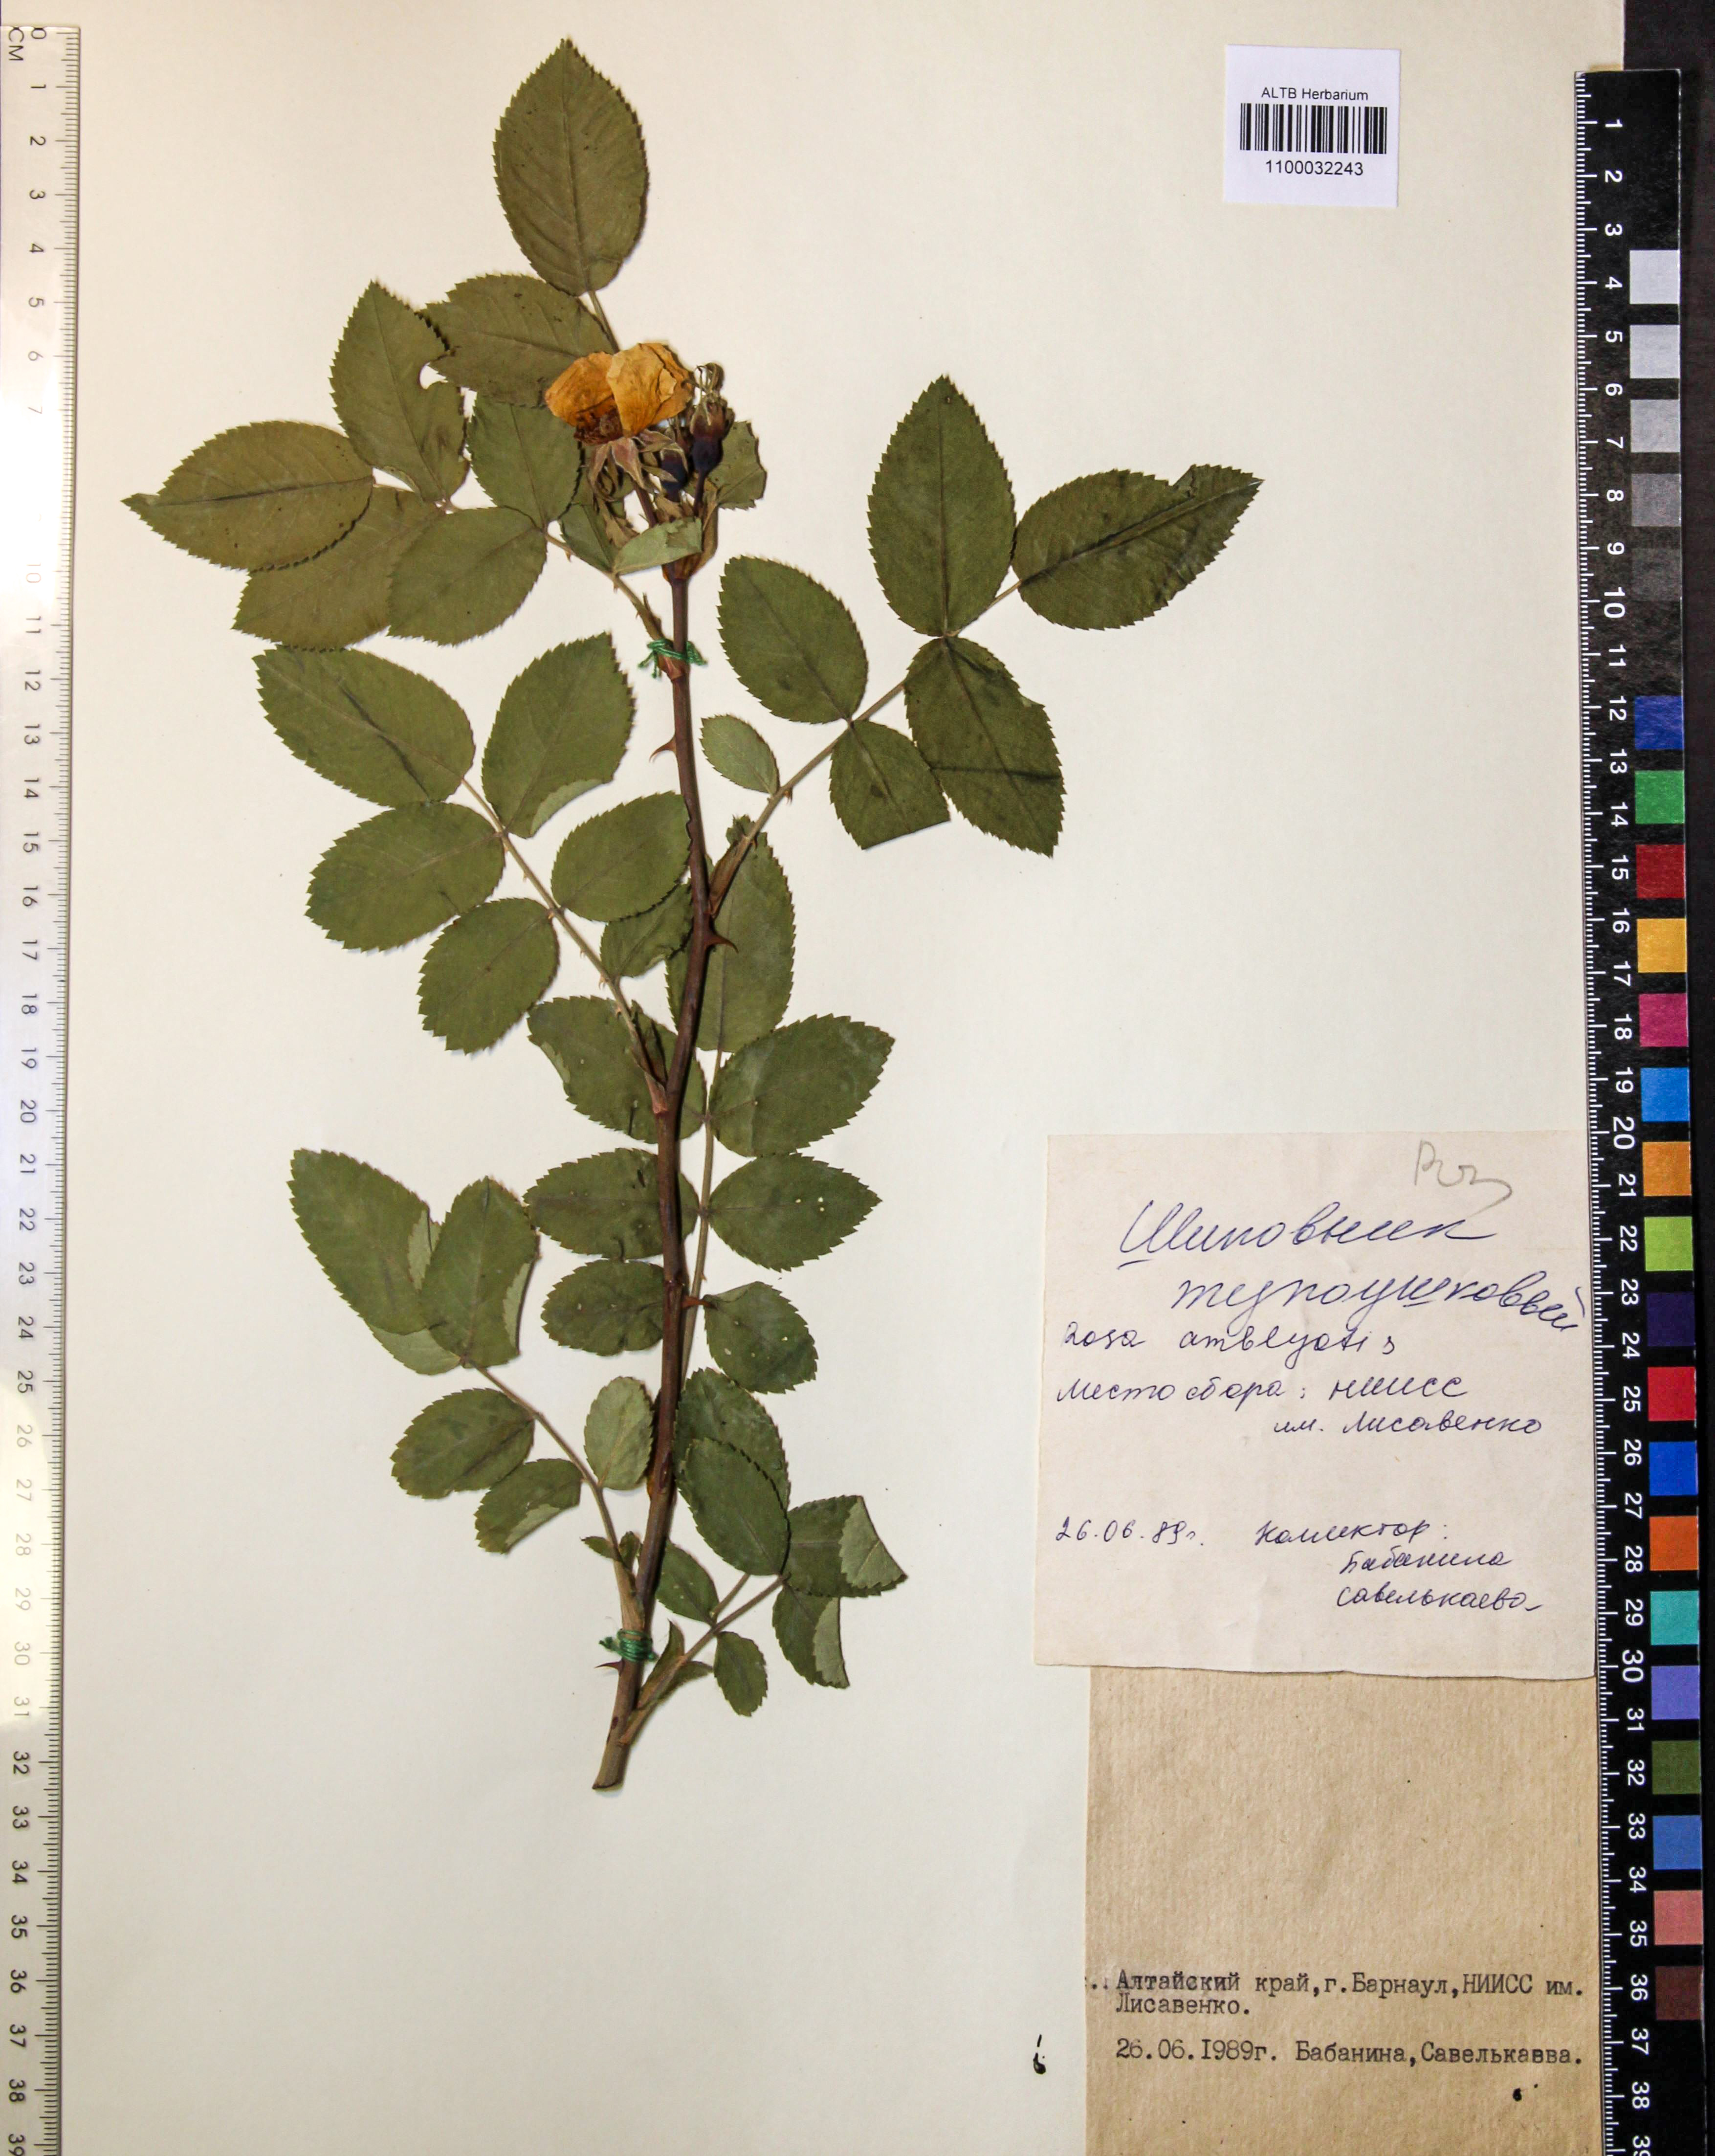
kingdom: Plantae
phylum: Tracheophyta
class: Magnoliopsida
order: Rosales
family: Rosaceae
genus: Rosa
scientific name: Rosa davurica
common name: Amur rose
